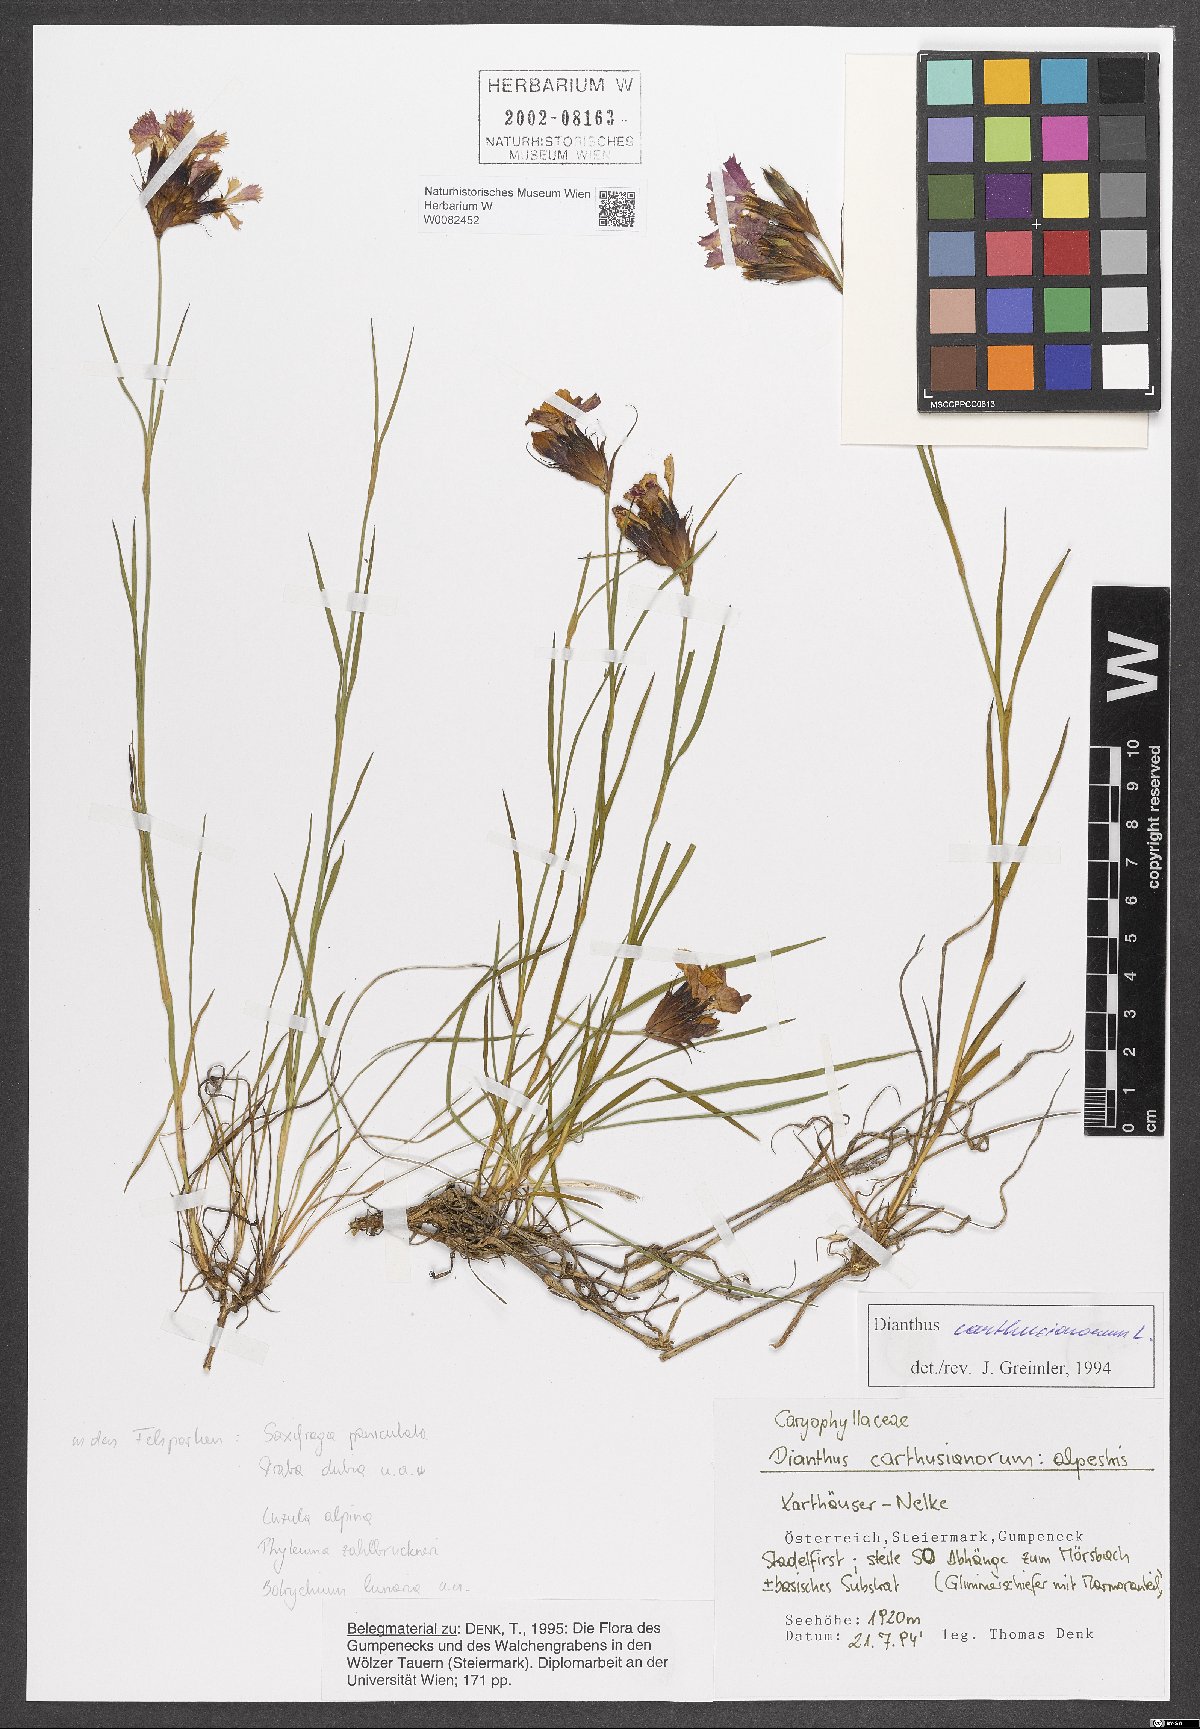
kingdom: Plantae
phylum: Tracheophyta
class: Magnoliopsida
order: Caryophyllales
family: Caryophyllaceae
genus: Dianthus
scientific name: Dianthus carthusianorum
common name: Carthusian pink
